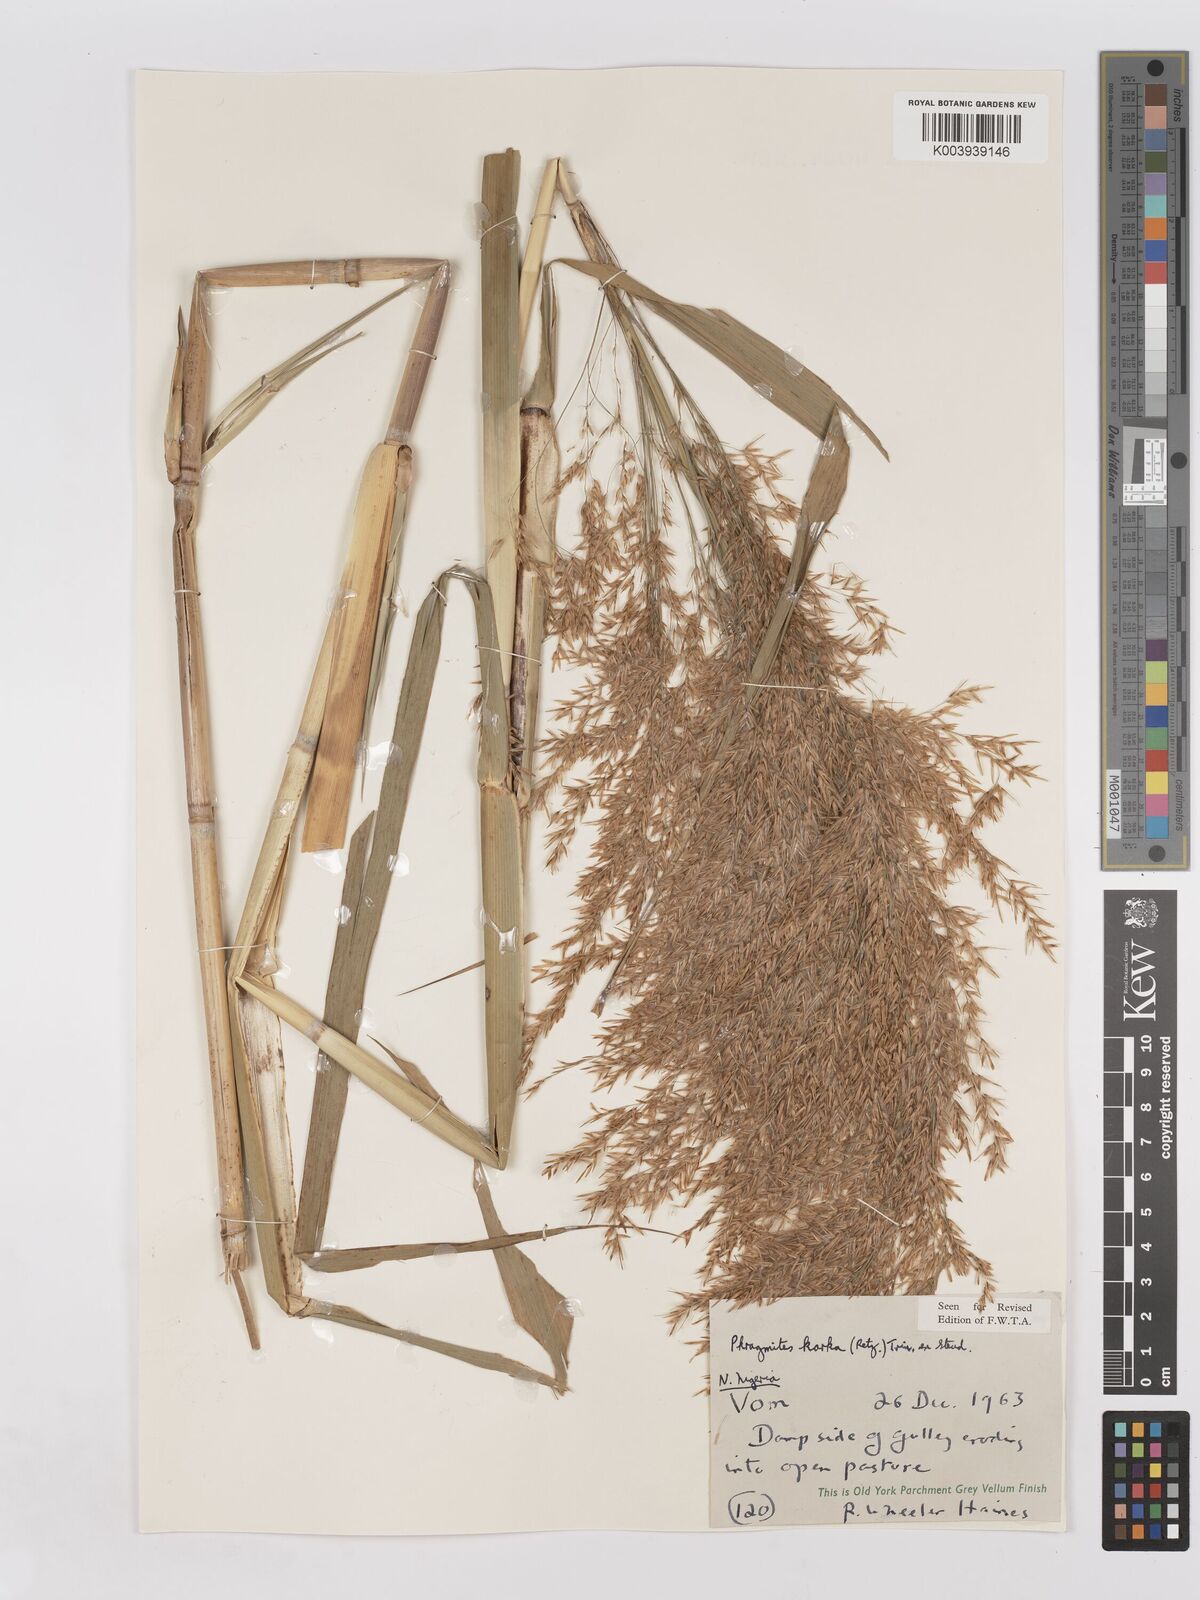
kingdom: Plantae
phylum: Tracheophyta
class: Liliopsida
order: Poales
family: Poaceae
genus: Phragmites
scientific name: Phragmites karka
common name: Tropical reed
